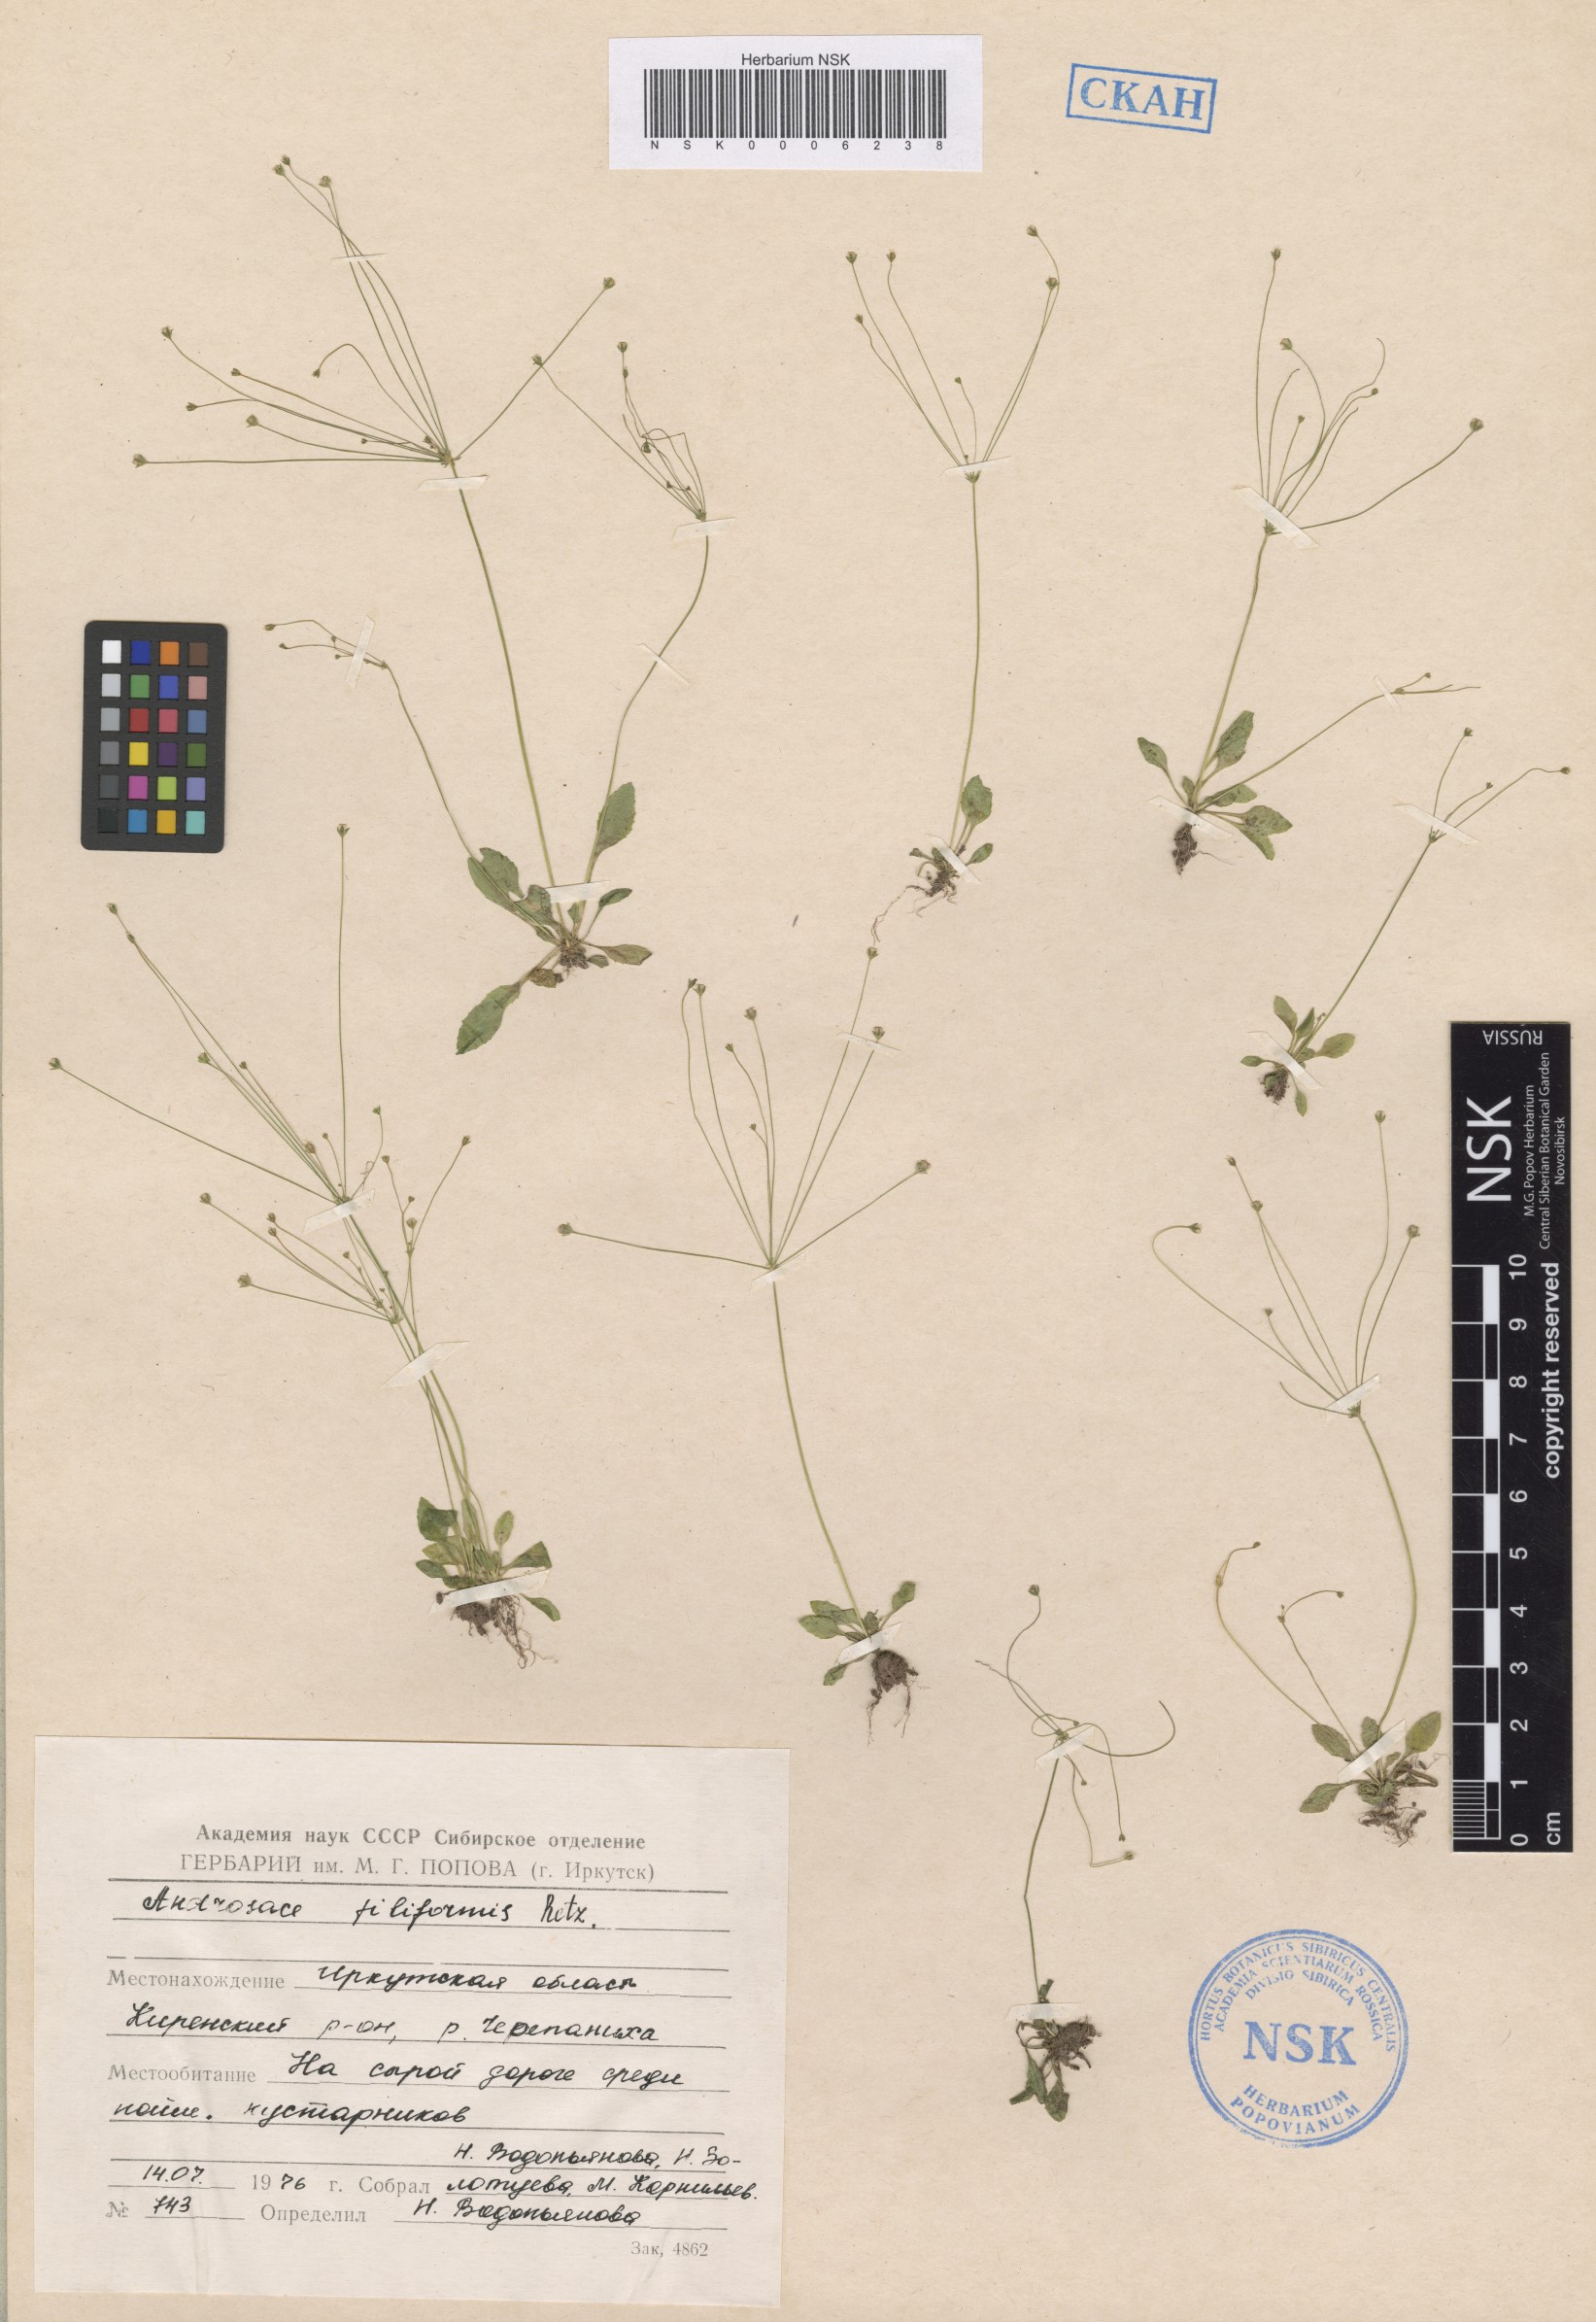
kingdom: Plantae
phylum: Tracheophyta
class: Magnoliopsida
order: Ericales
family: Primulaceae
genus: Androsace
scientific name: Androsace filiformis
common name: Filiform rock jasmine
